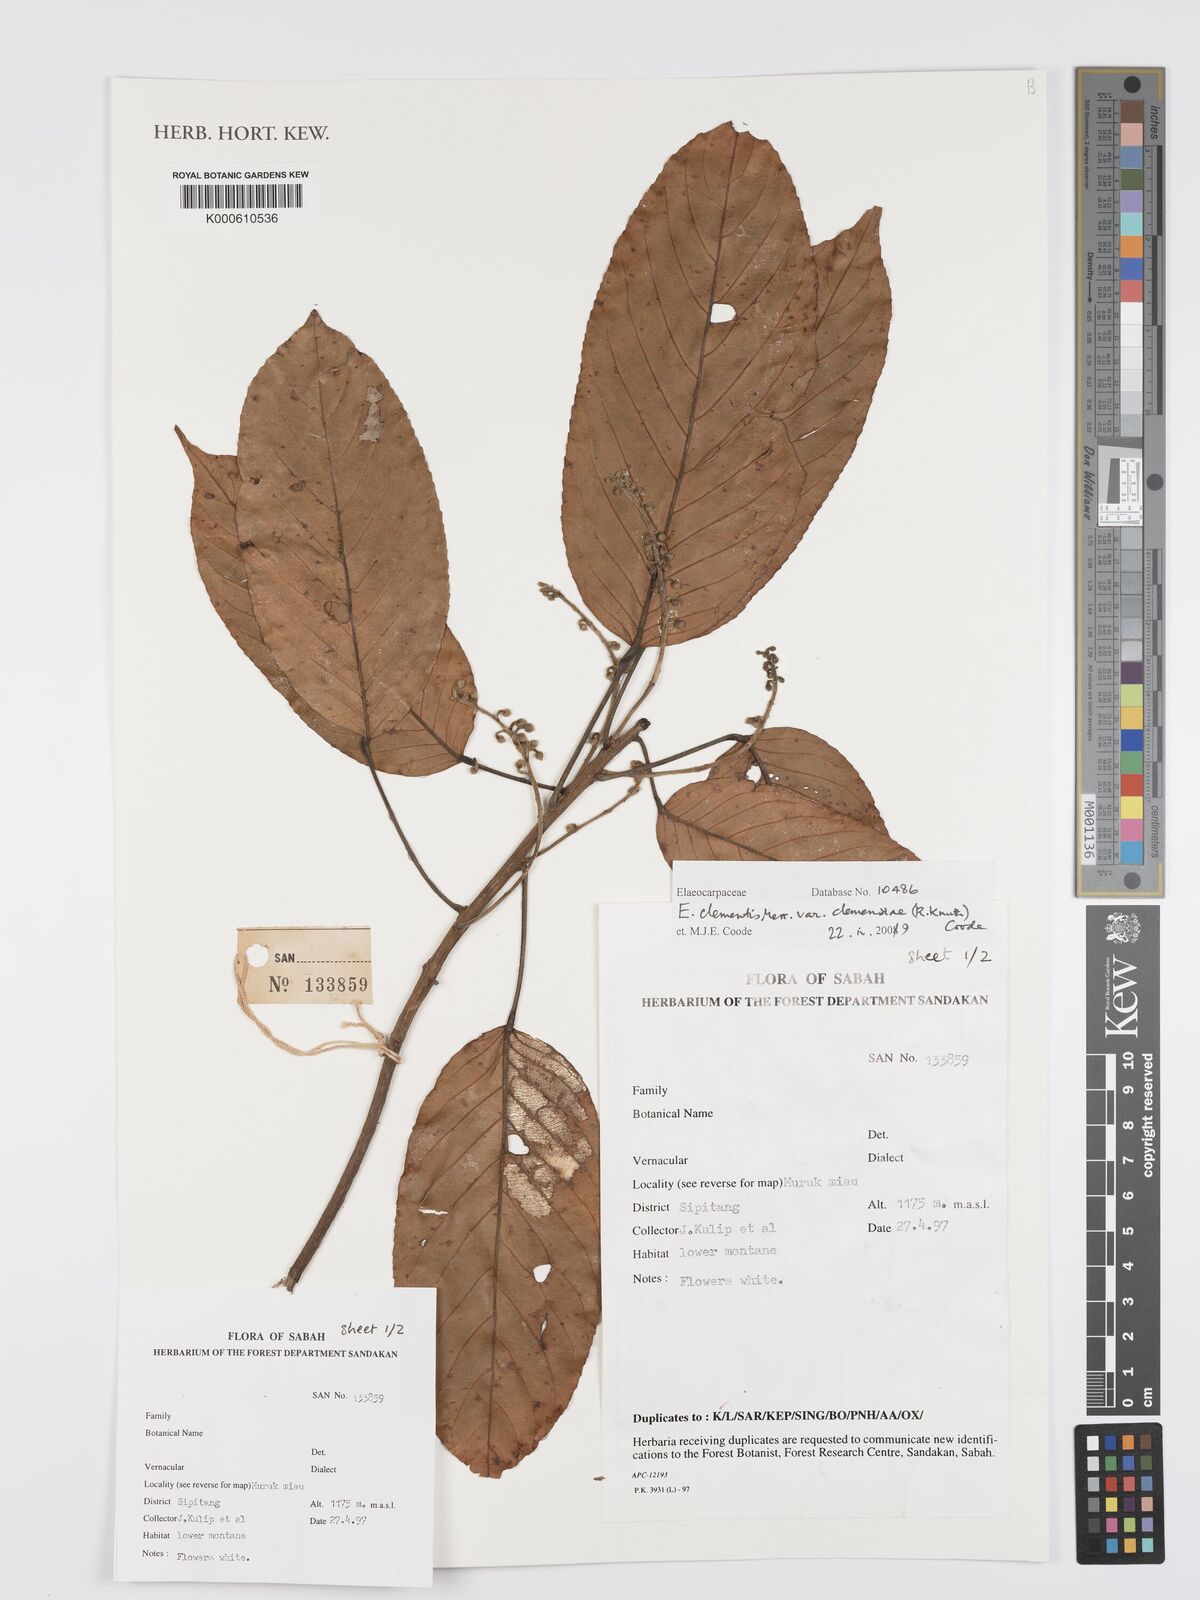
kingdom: Plantae
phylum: Tracheophyta
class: Magnoliopsida
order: Oxalidales
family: Elaeocarpaceae
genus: Elaeocarpus
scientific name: Elaeocarpus clementis
